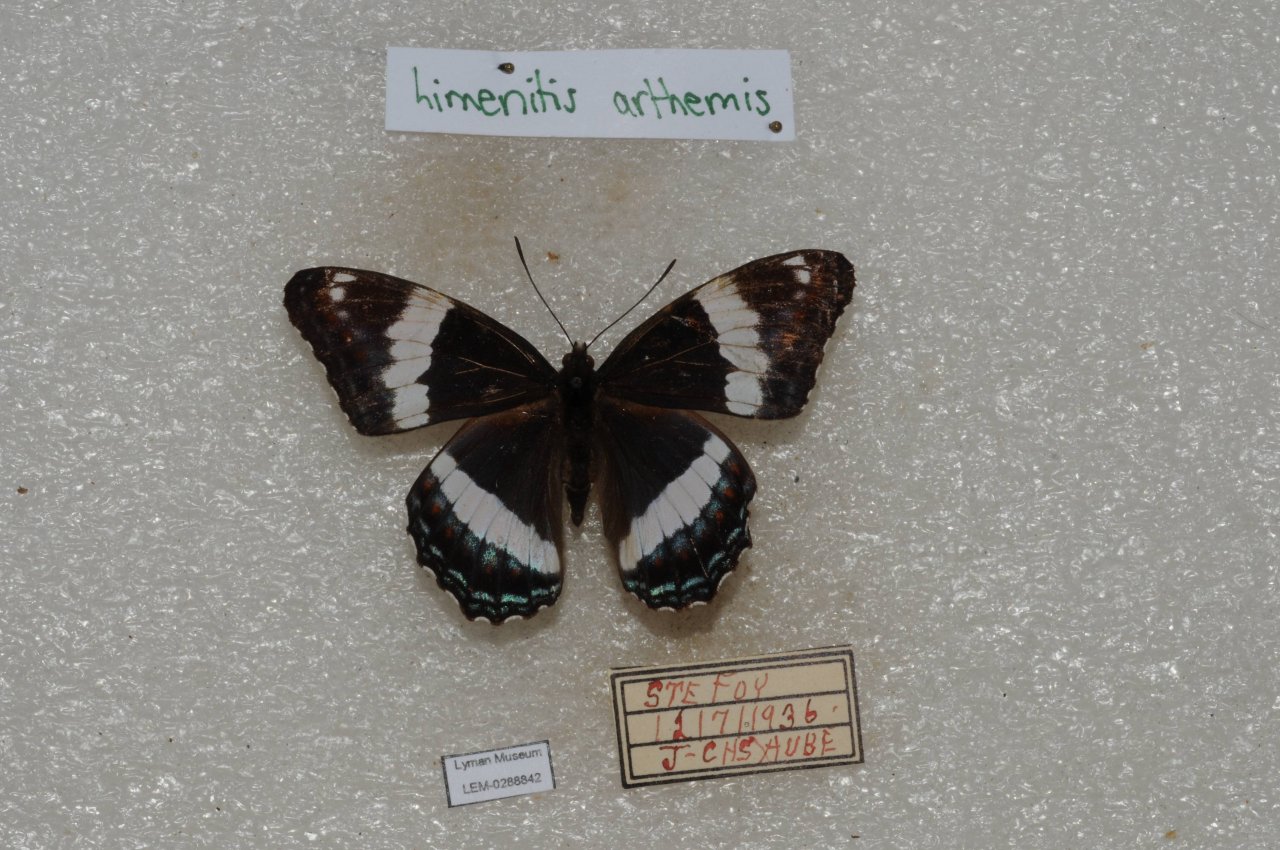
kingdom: Animalia
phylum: Arthropoda
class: Insecta
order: Lepidoptera
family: Nymphalidae
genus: Limenitis
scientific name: Limenitis arthemis
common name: Red-spotted Admiral
